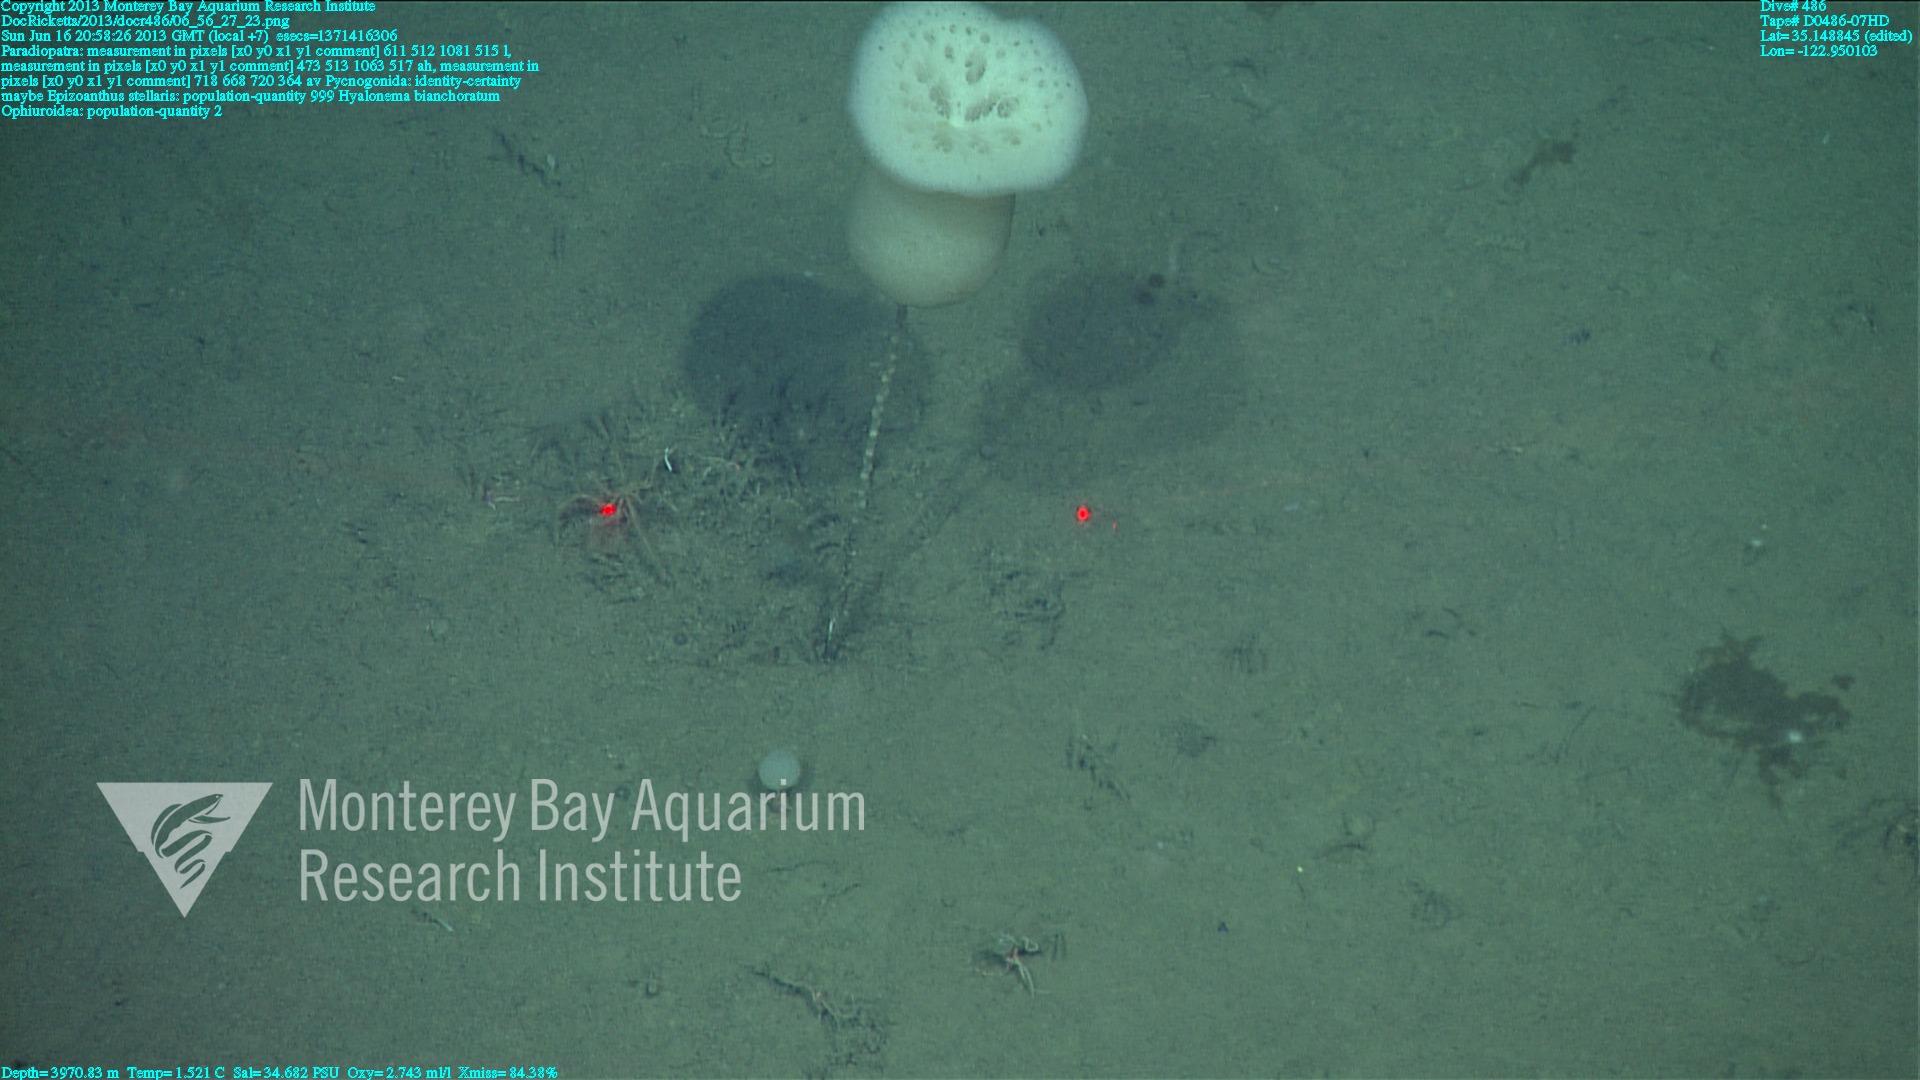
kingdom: Animalia
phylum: Porifera
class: Hexactinellida
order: Amphidiscosida
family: Hyalonematidae
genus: Hyalonema
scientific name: Hyalonema bianchoratum
